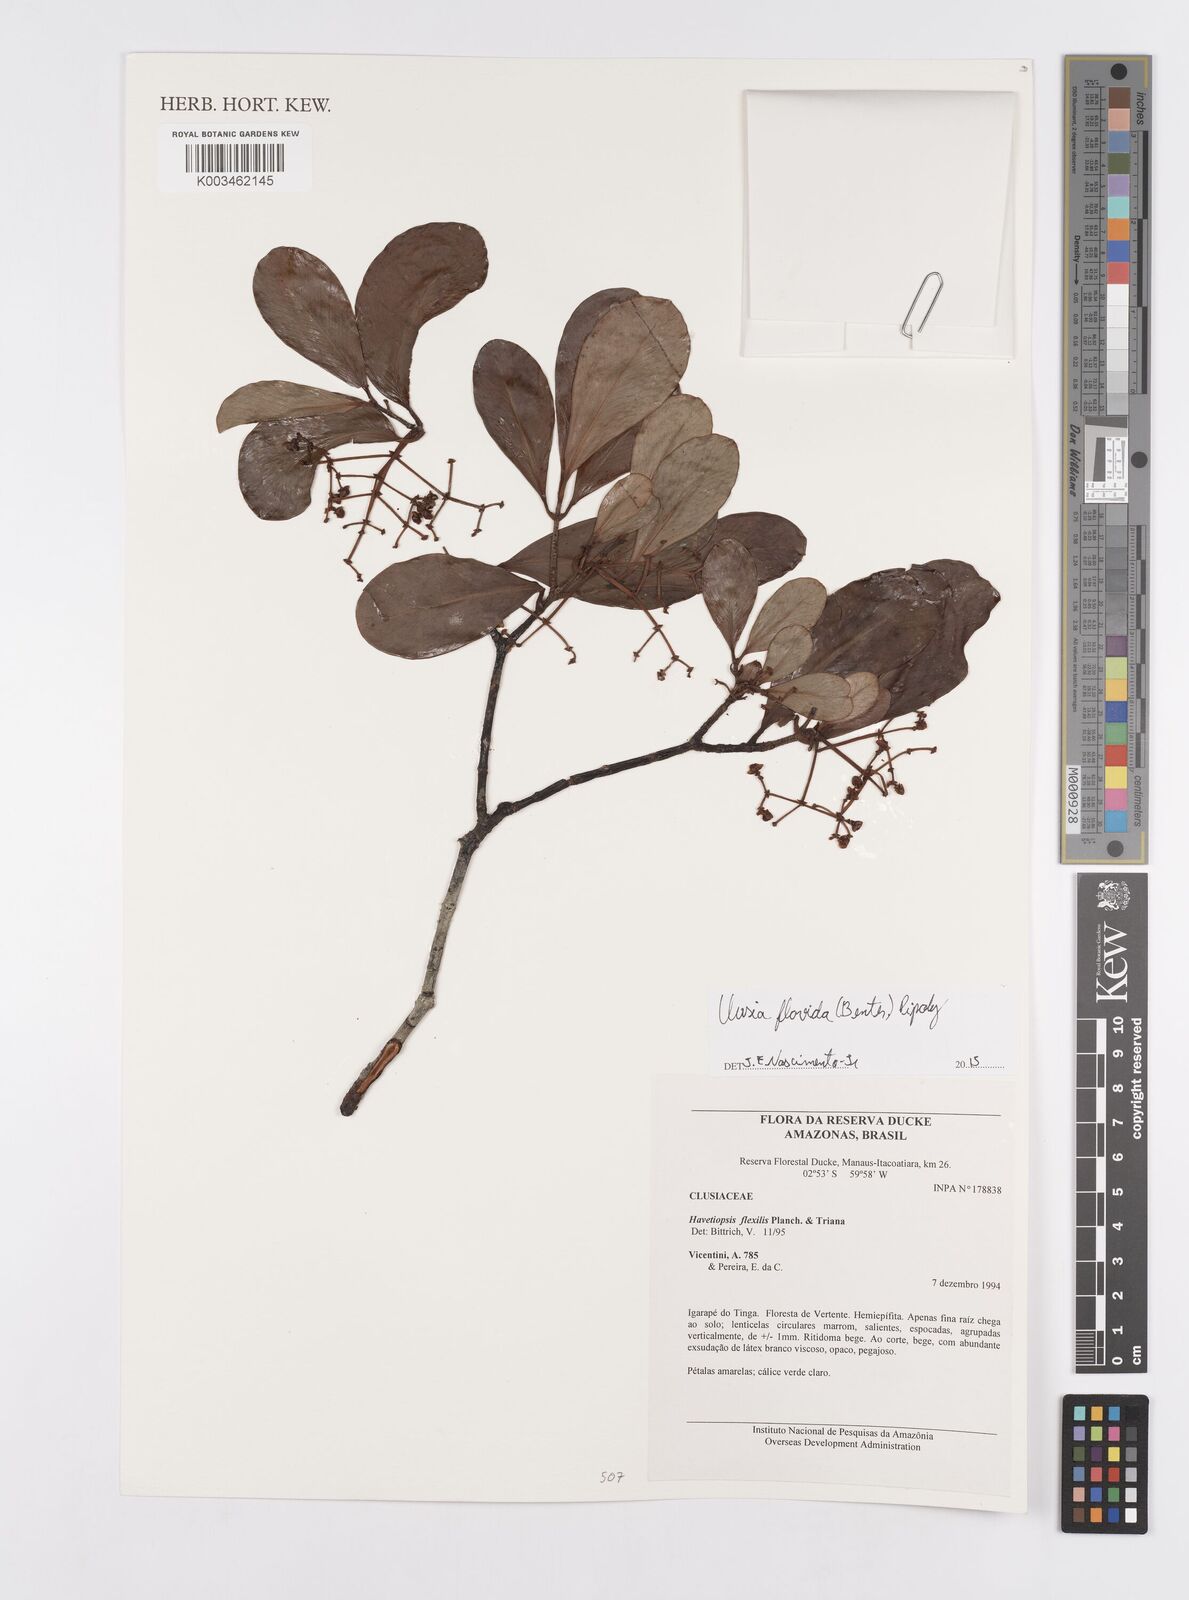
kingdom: Plantae
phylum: Tracheophyta
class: Magnoliopsida
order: Malpighiales
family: Clusiaceae
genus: Clusia
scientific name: Clusia flavida
